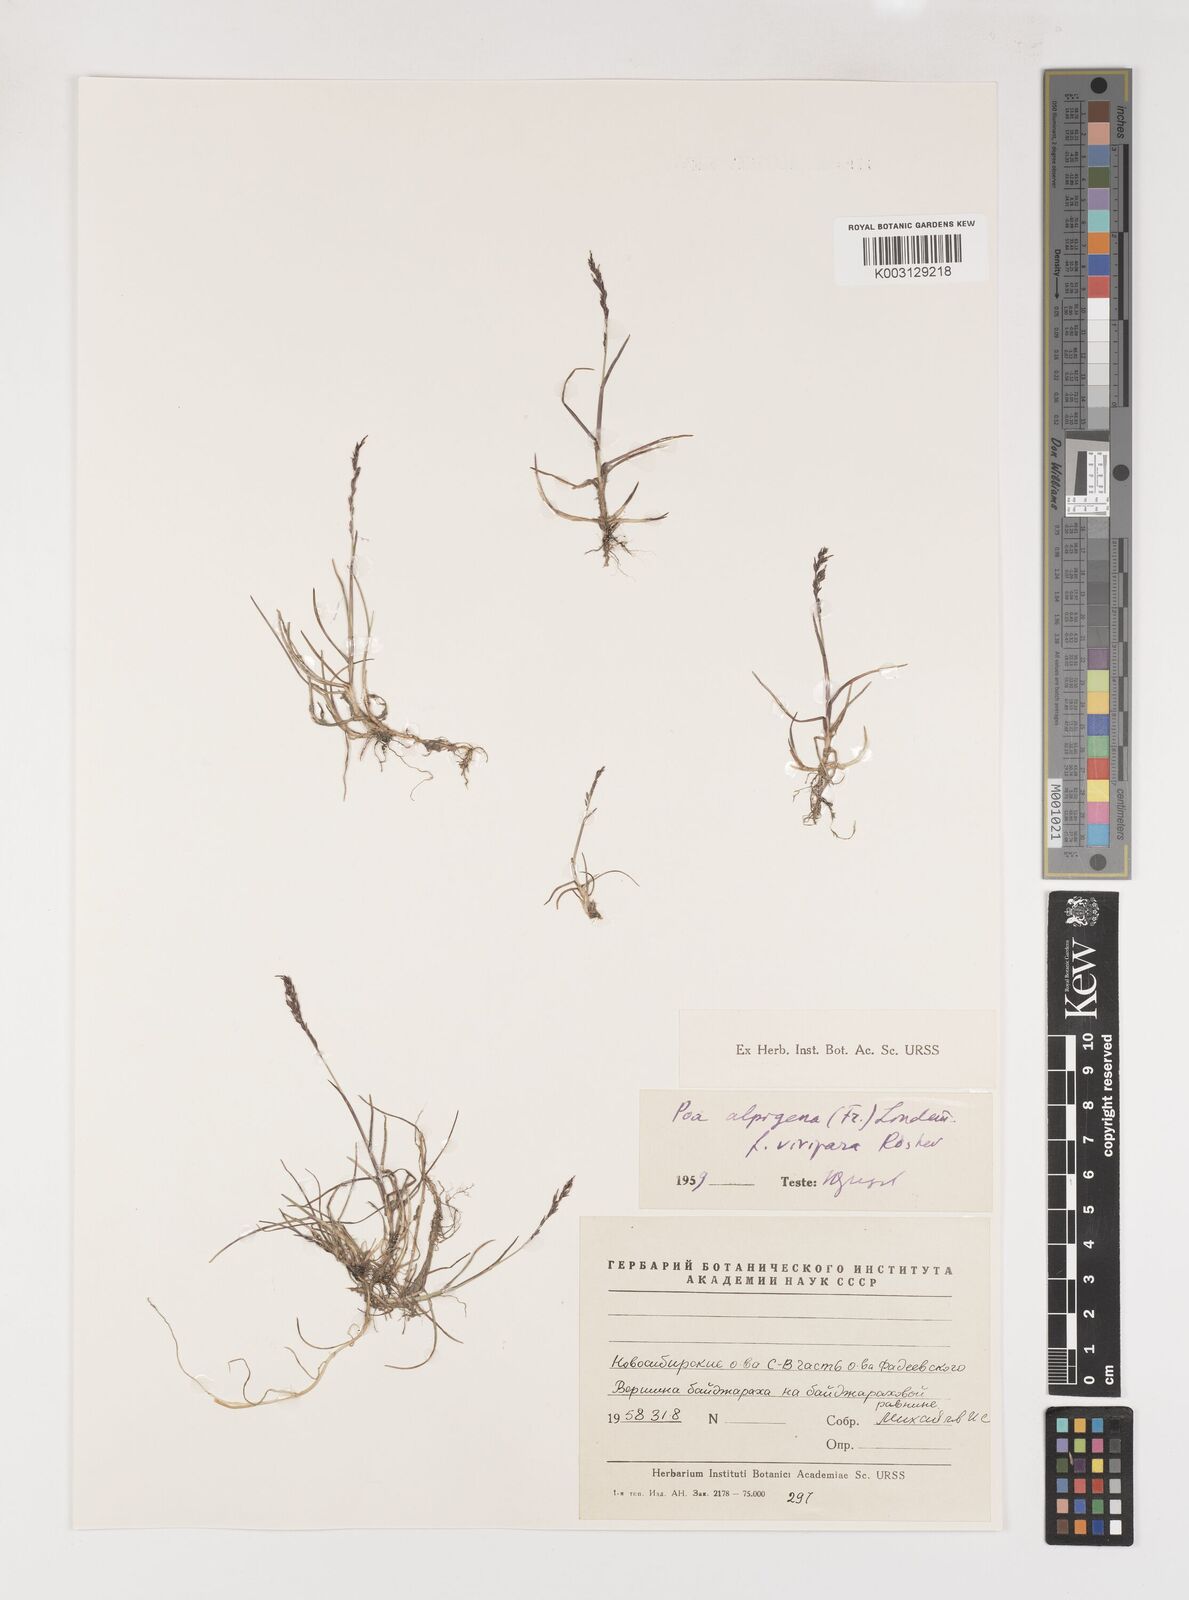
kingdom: Plantae
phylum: Tracheophyta
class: Liliopsida
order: Poales
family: Poaceae
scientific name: Poaceae
